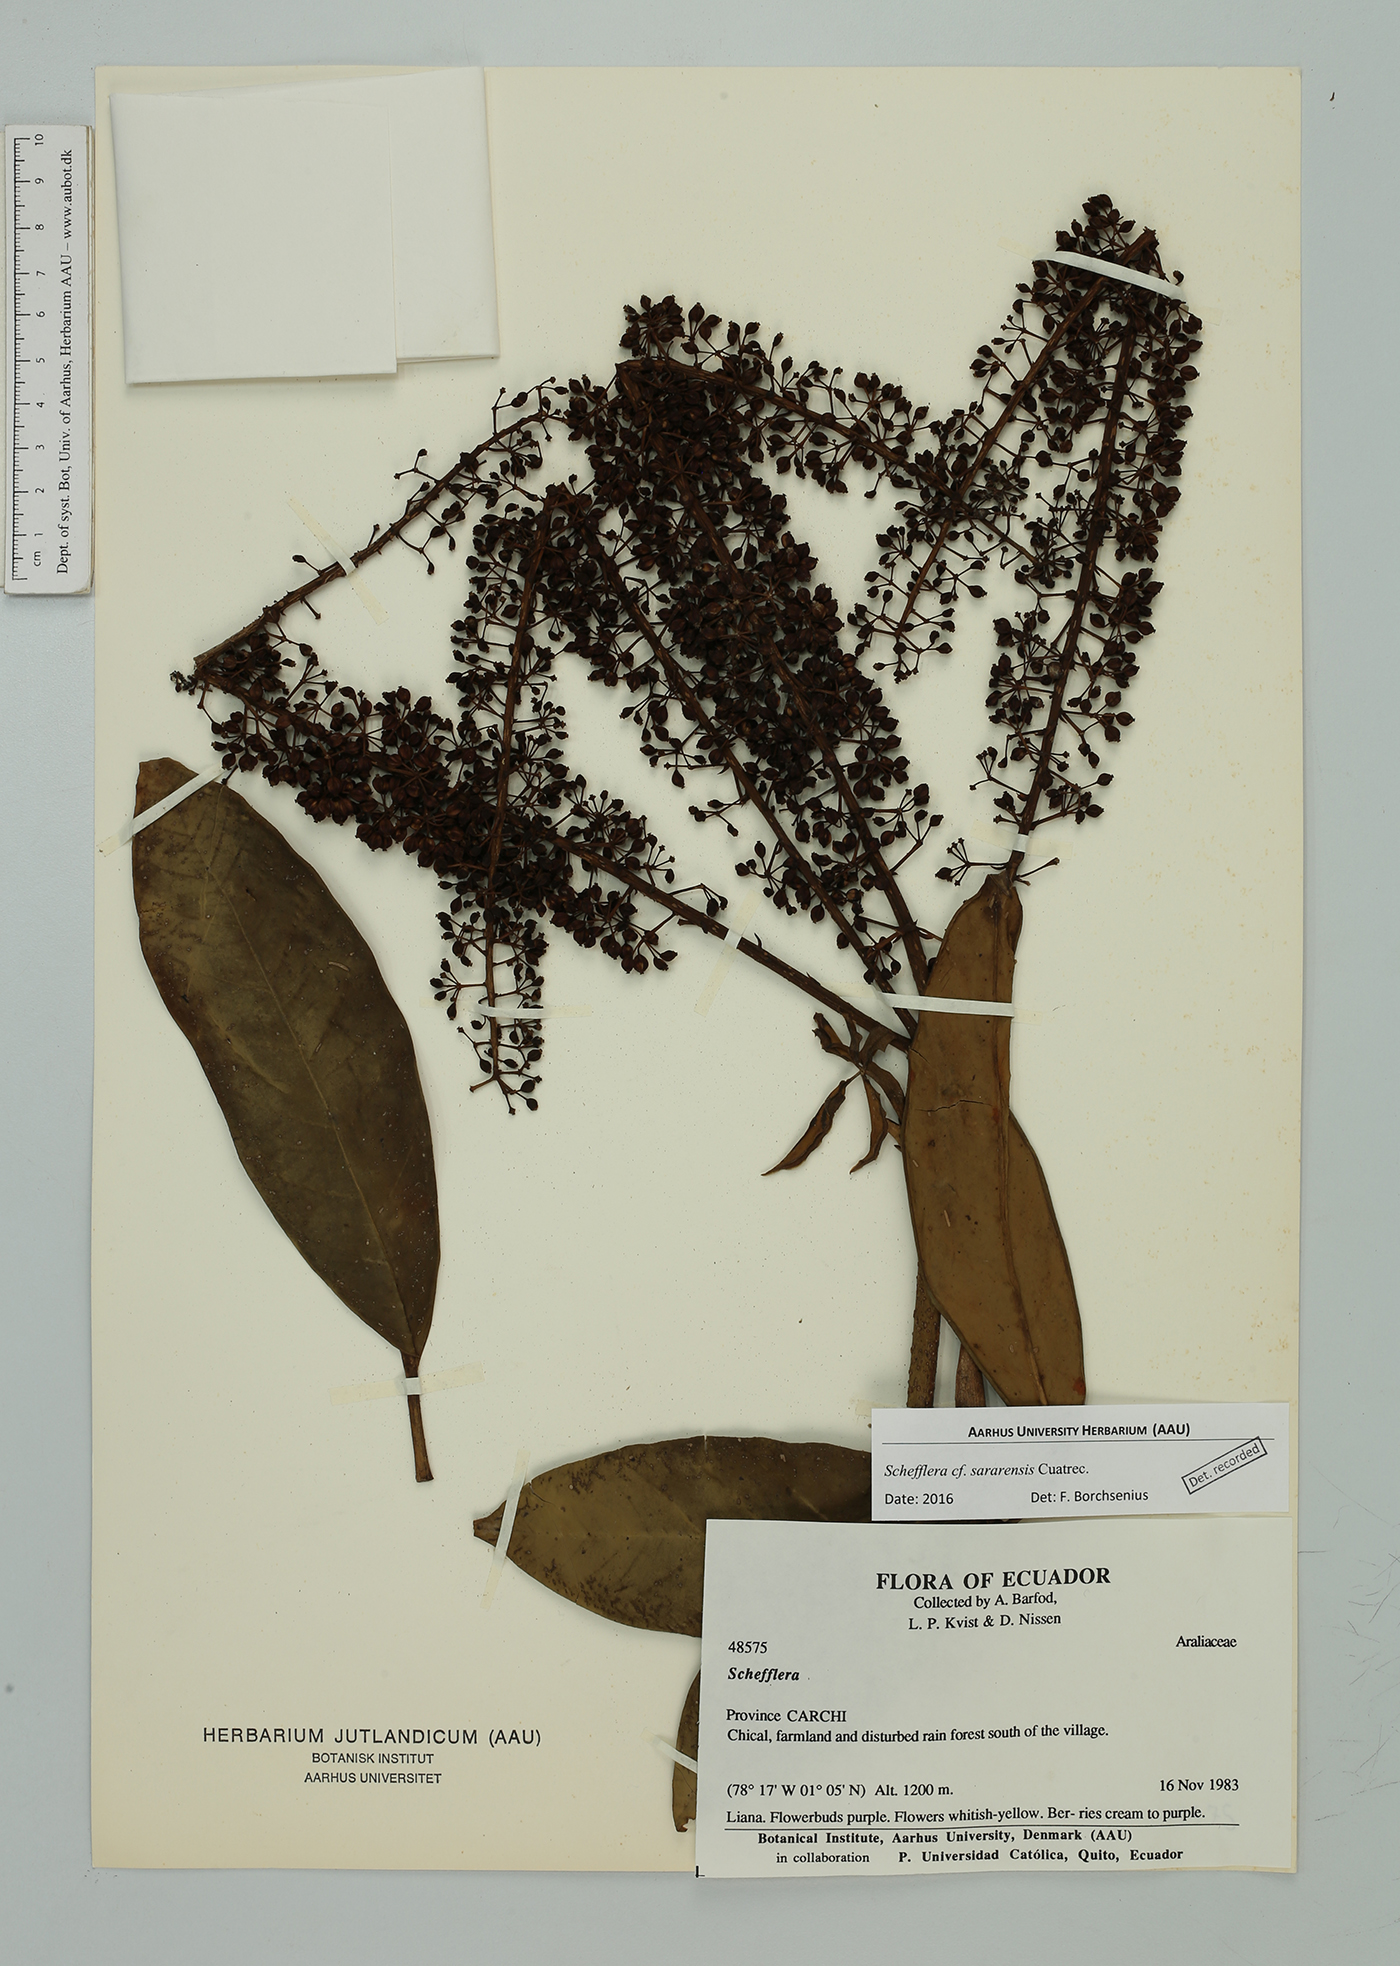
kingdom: Plantae
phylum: Tracheophyta
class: Magnoliopsida
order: Apiales
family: Araliaceae
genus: Sciodaphyllum
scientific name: Sciodaphyllum
